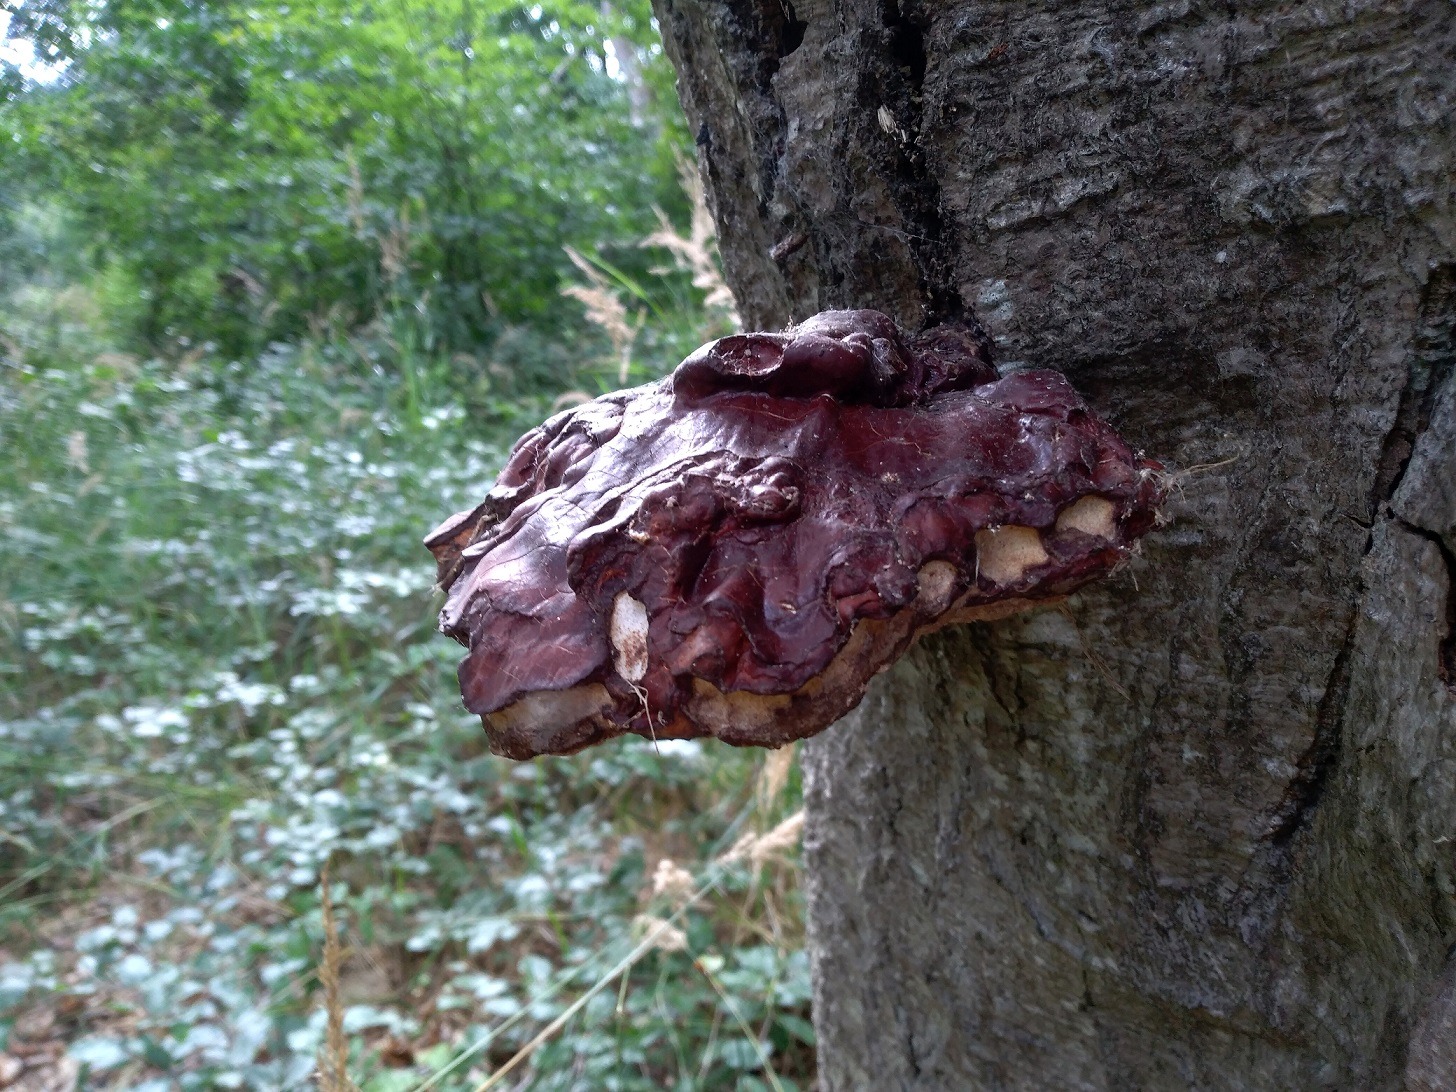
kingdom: Fungi
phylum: Basidiomycota
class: Agaricomycetes
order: Polyporales
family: Polyporaceae
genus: Ganoderma
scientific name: Ganoderma lucidum
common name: Skinnende lakporesvamp
